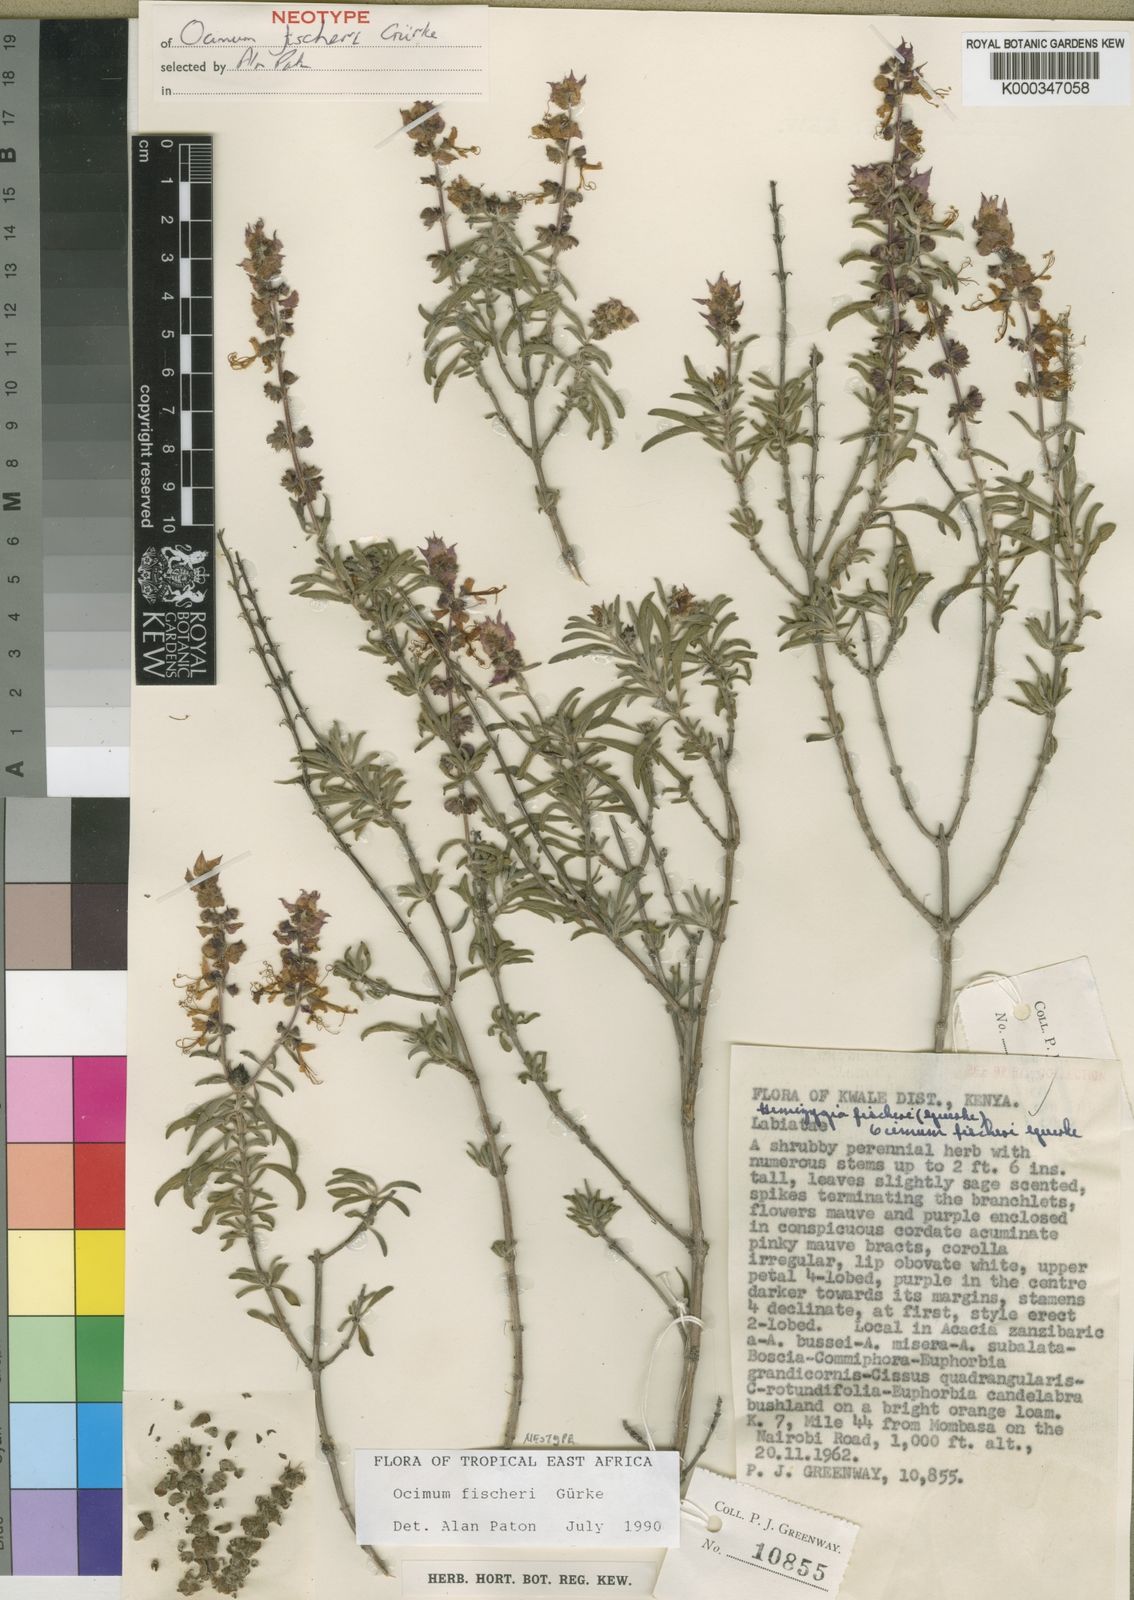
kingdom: Plantae
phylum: Tracheophyta
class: Magnoliopsida
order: Lamiales
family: Lamiaceae
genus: Ocimum
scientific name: Ocimum
